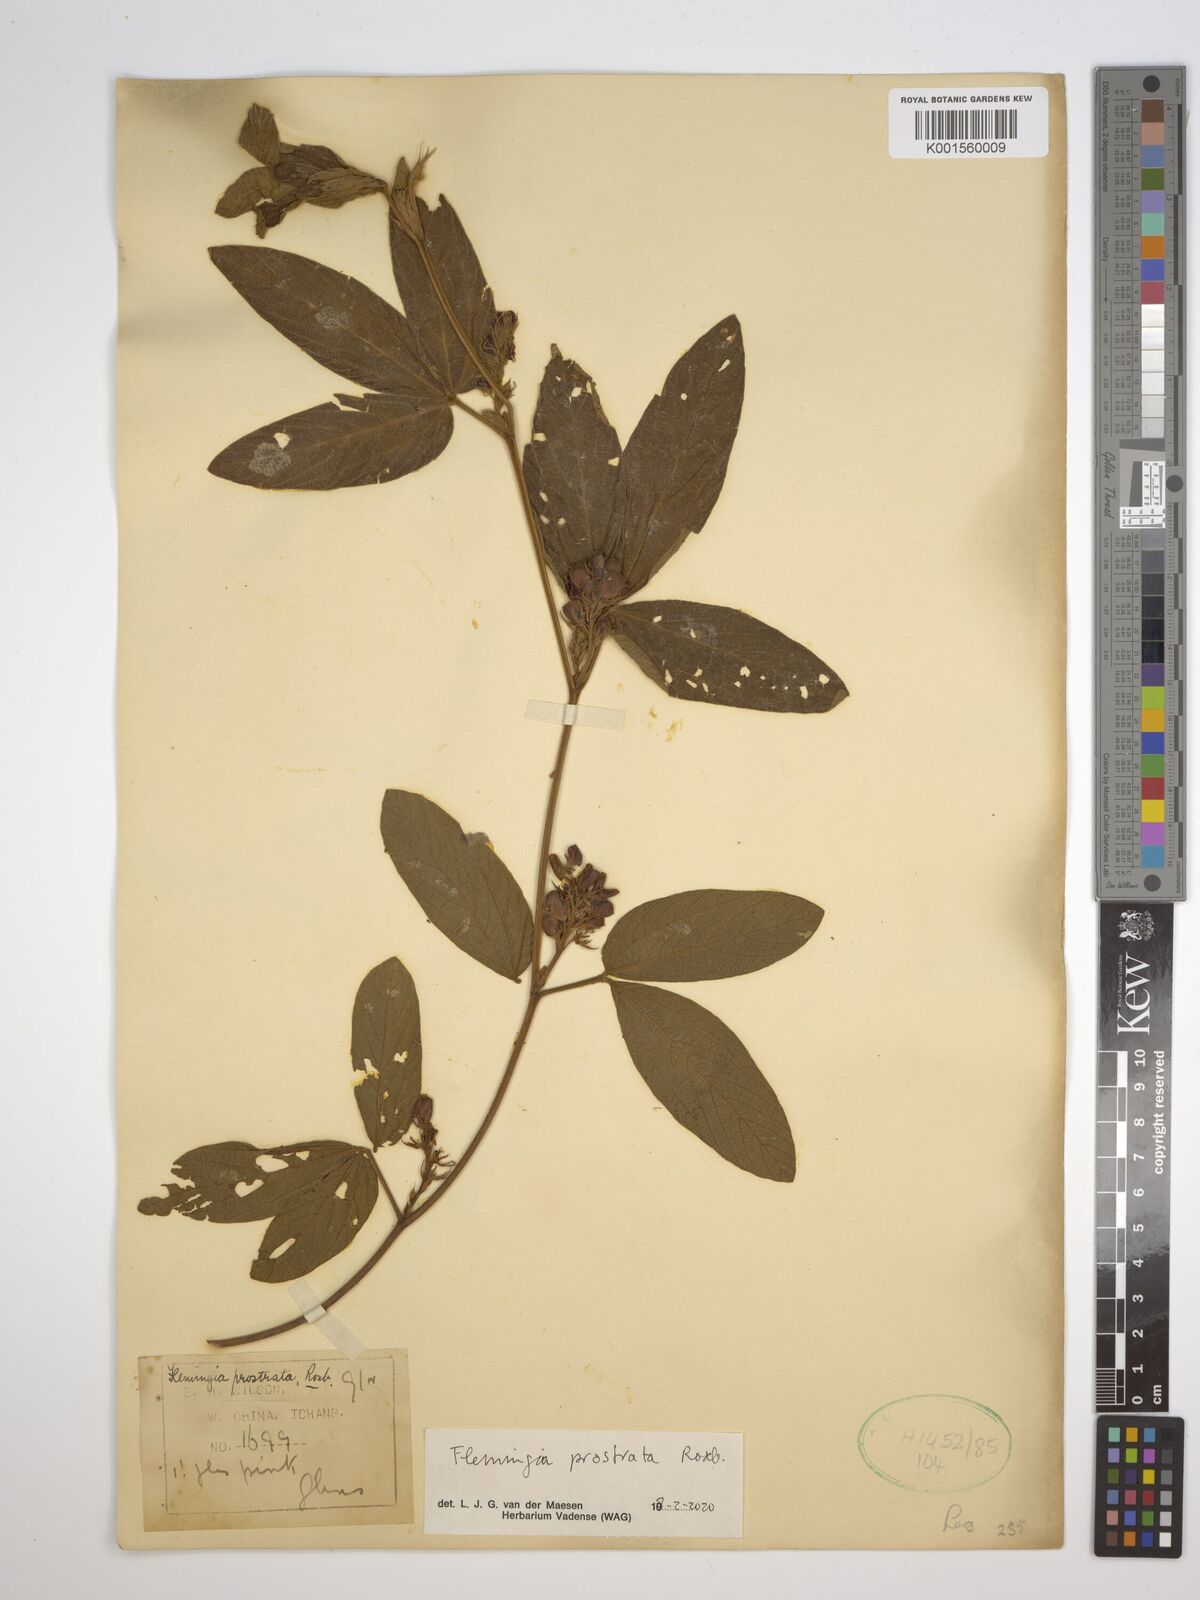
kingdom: Plantae
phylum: Tracheophyta
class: Magnoliopsida
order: Fabales
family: Fabaceae
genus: Flemingia
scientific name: Flemingia prostrata
